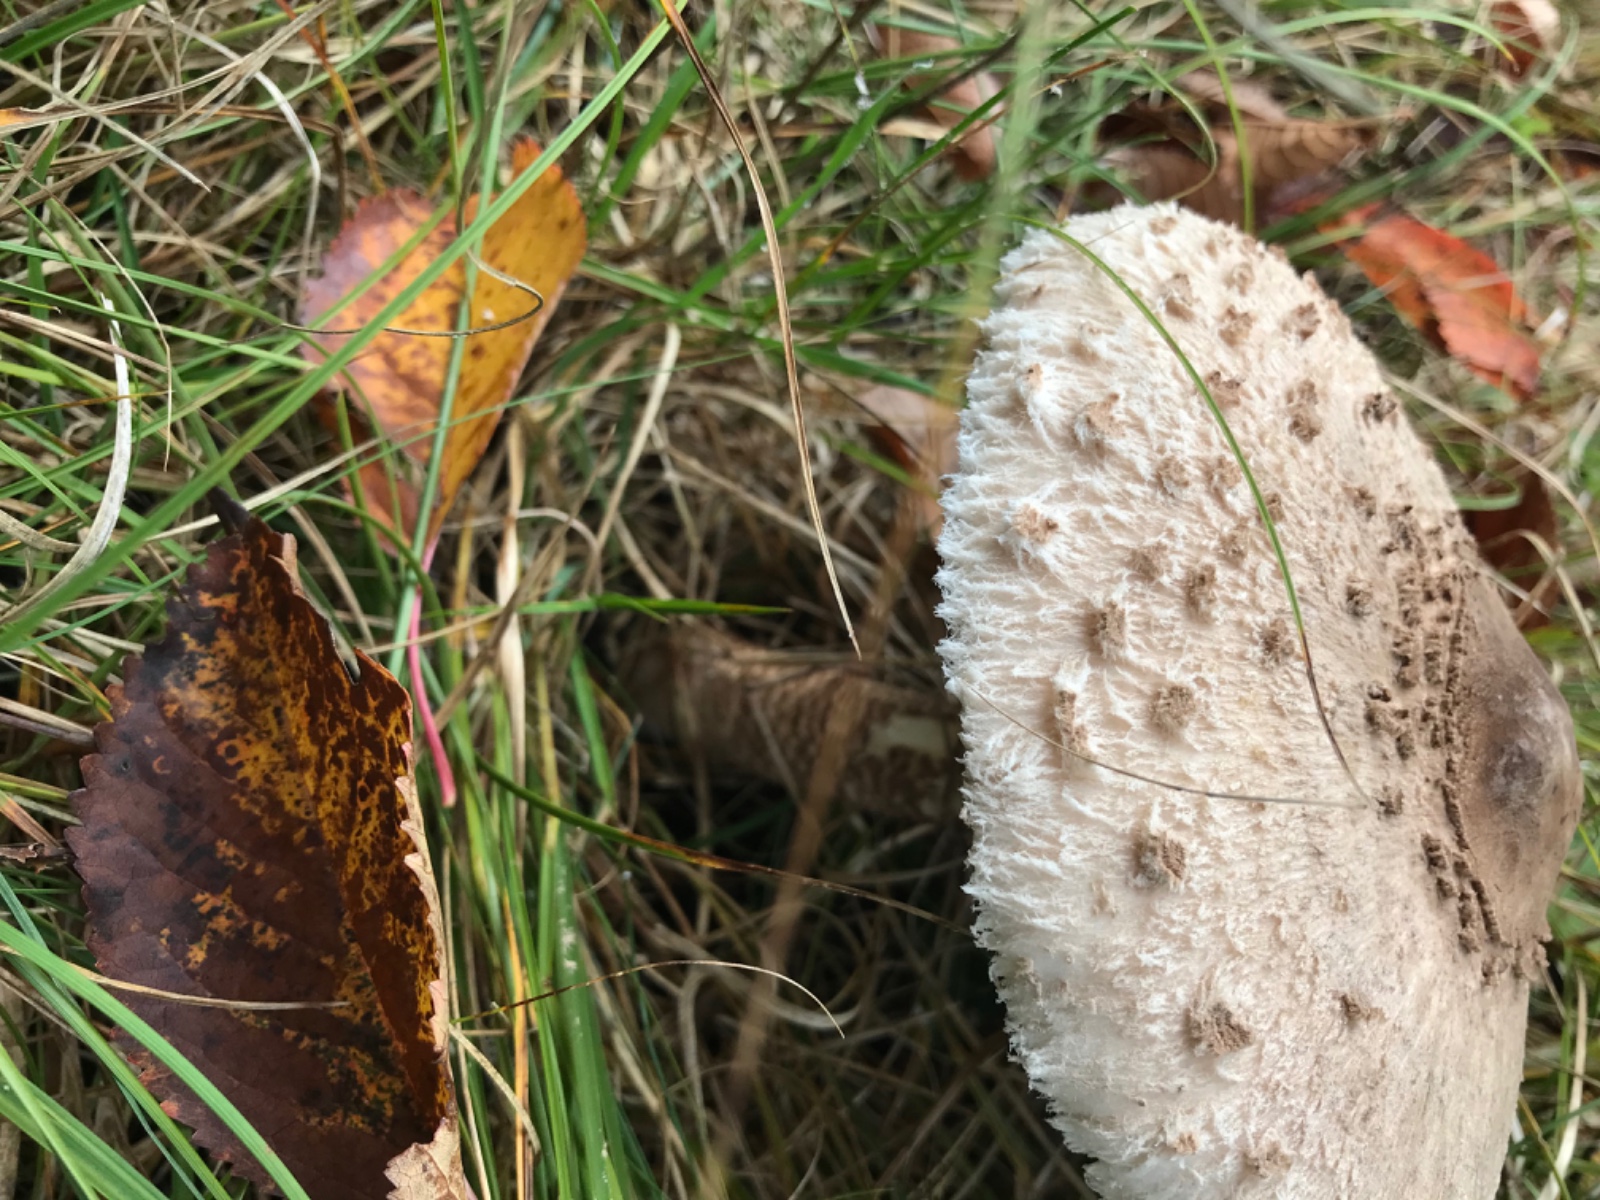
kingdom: Fungi
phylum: Basidiomycota
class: Agaricomycetes
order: Agaricales
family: Agaricaceae
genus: Macrolepiota
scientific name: Macrolepiota procera
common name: stor kæmpeparasolhat
